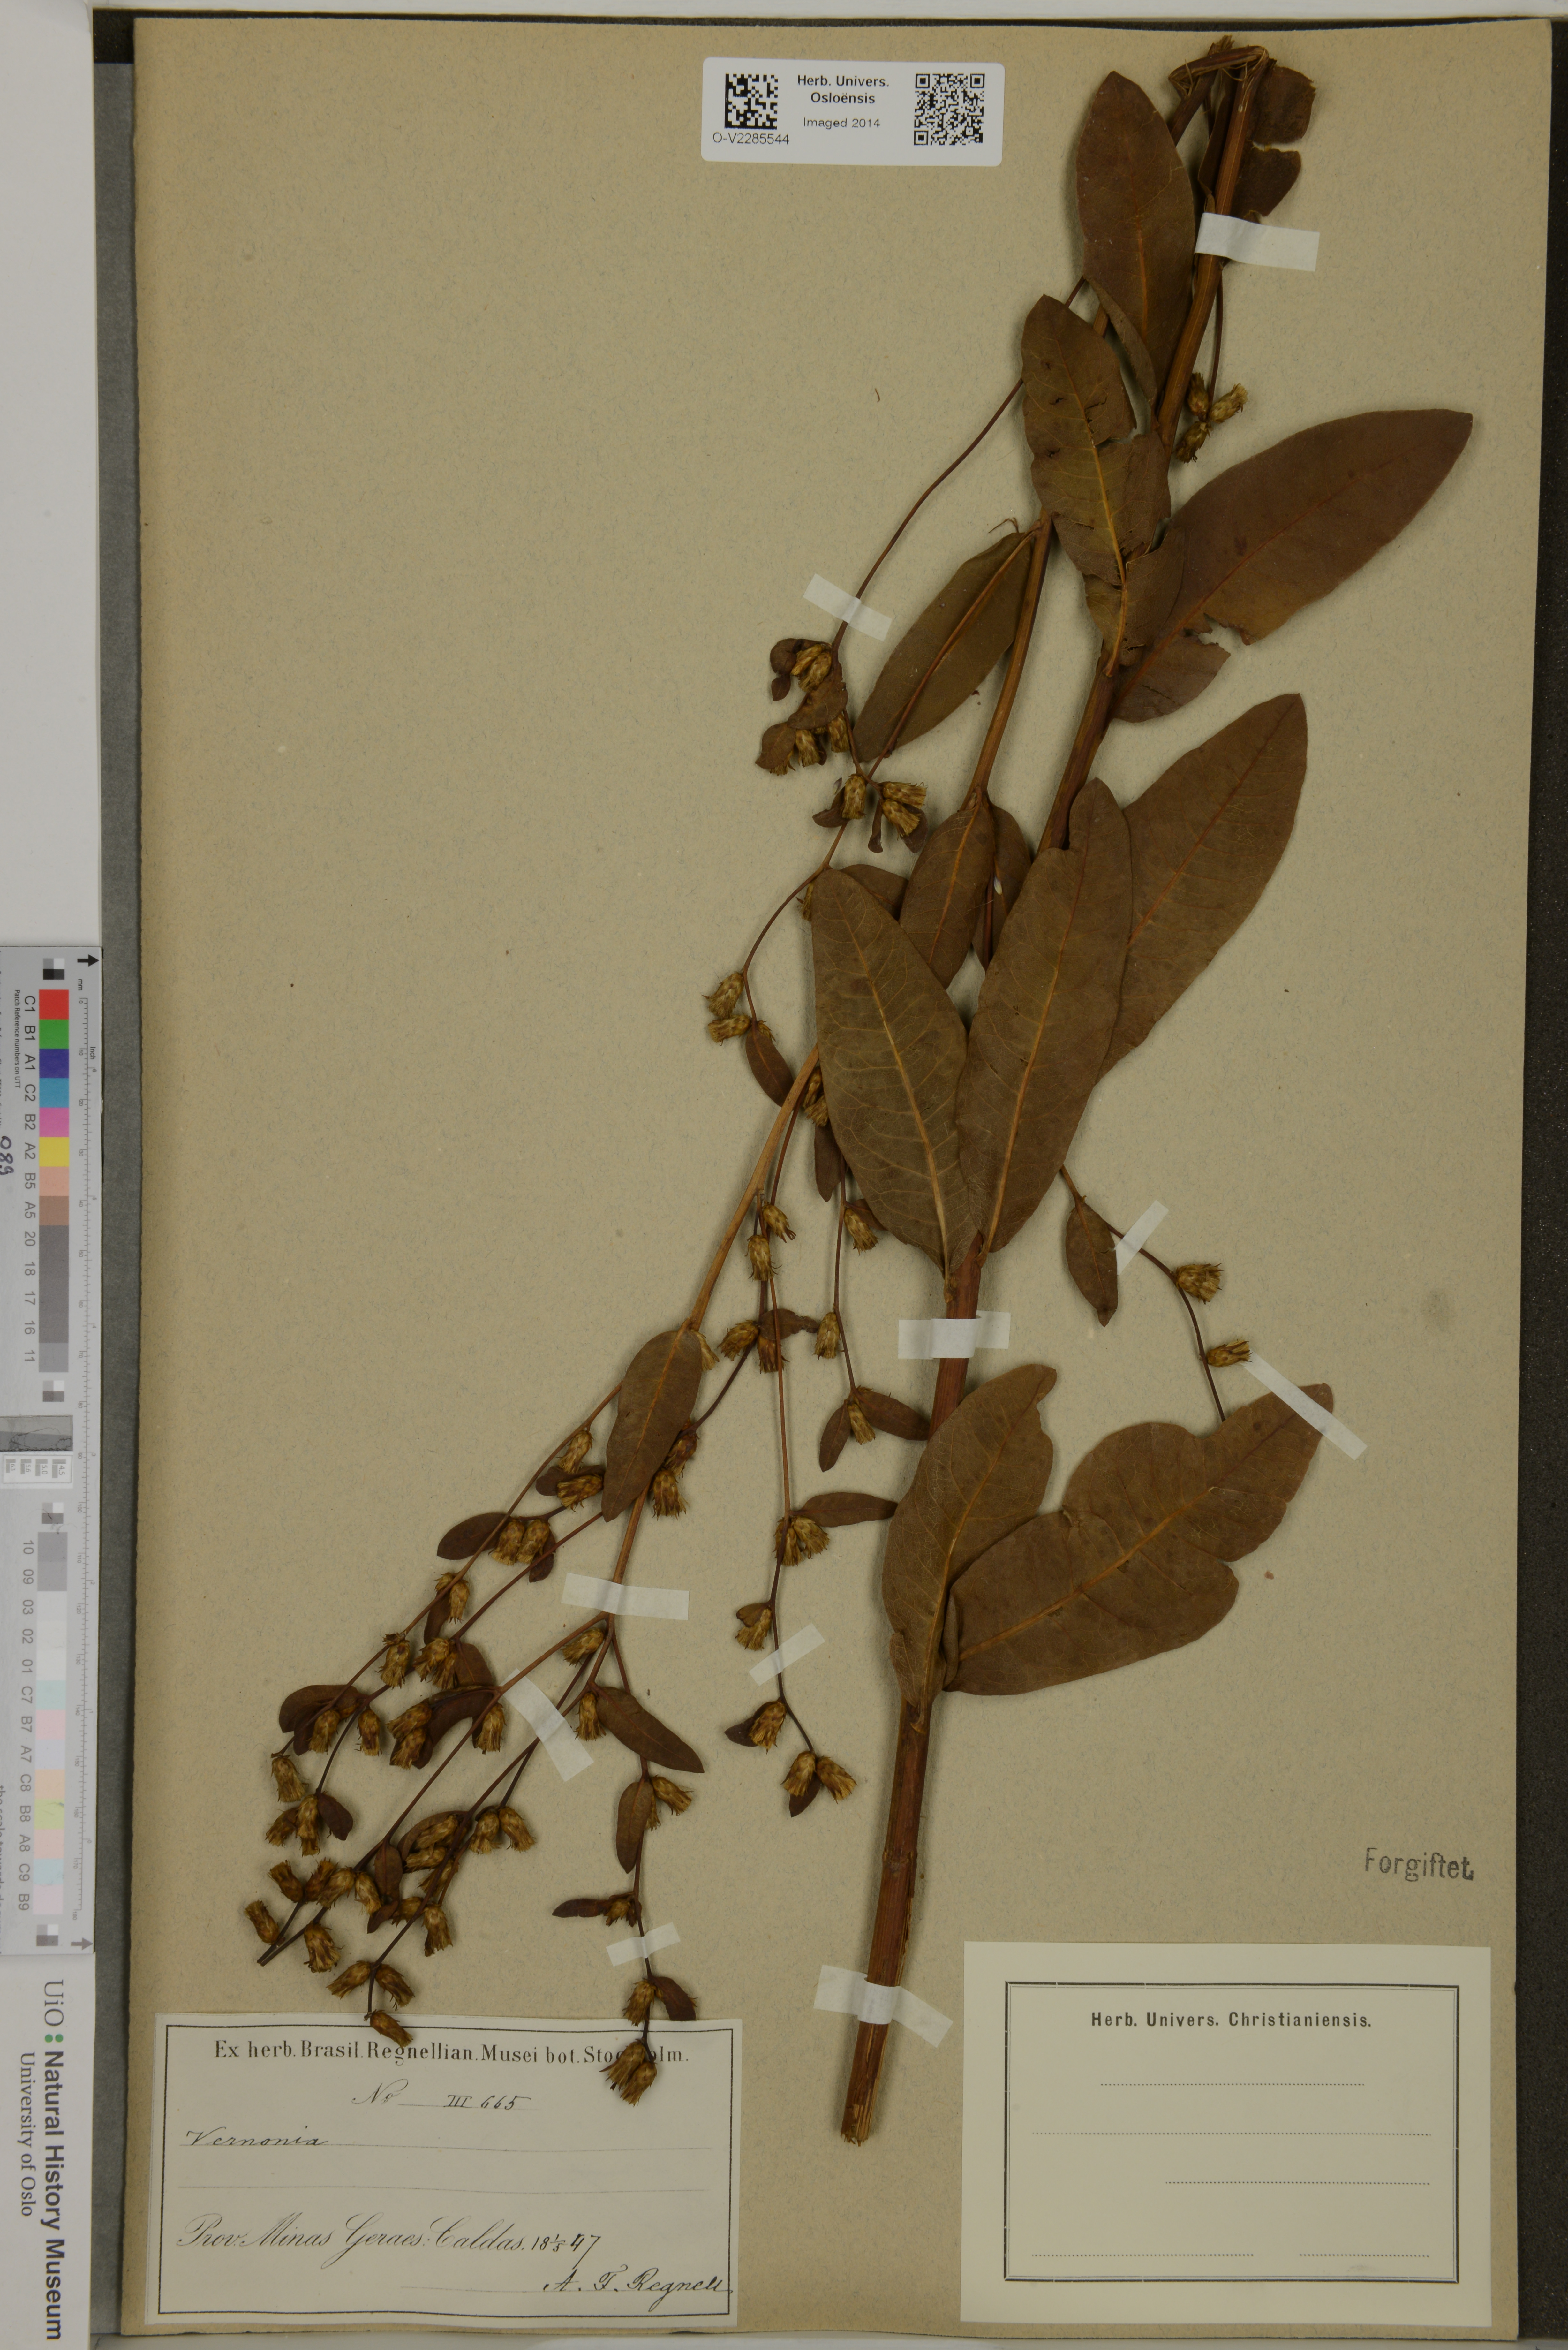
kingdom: Plantae
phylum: Tracheophyta
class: Magnoliopsida
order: Asterales
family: Asteraceae
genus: Vernonia
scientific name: Vernonia
